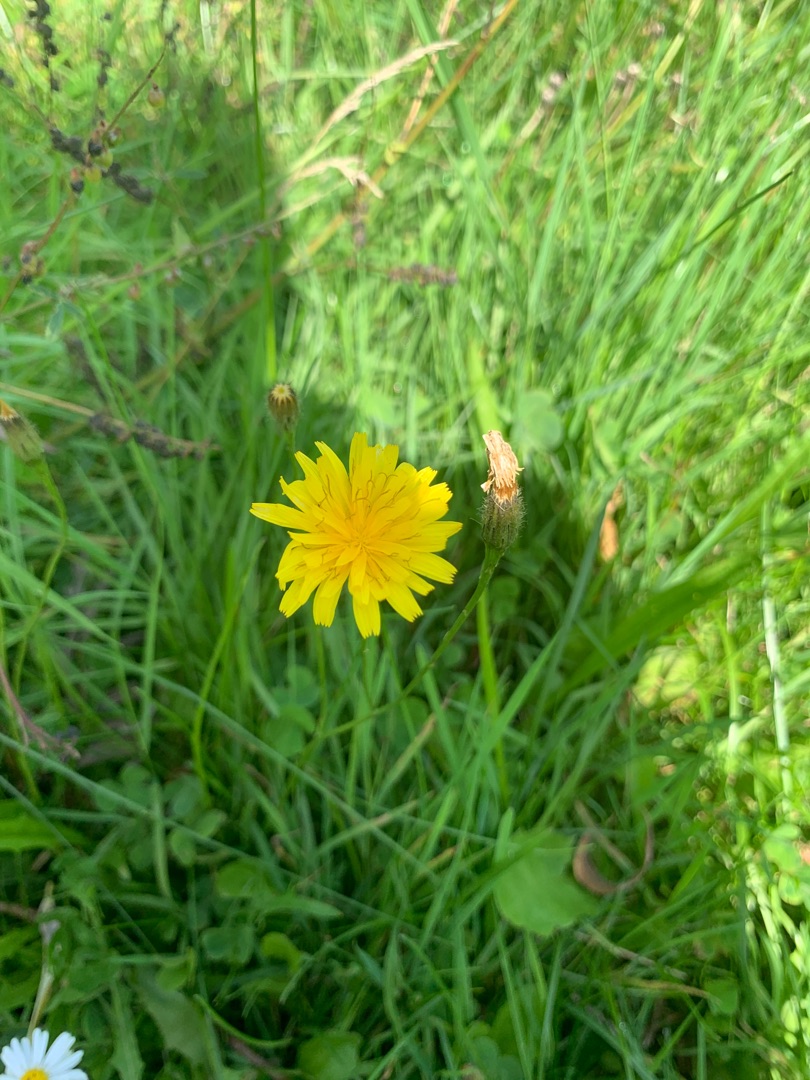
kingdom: Plantae
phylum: Tracheophyta
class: Magnoliopsida
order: Asterales
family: Asteraceae
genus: Scorzoneroides
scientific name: Scorzoneroides autumnalis
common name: Høst-borst
